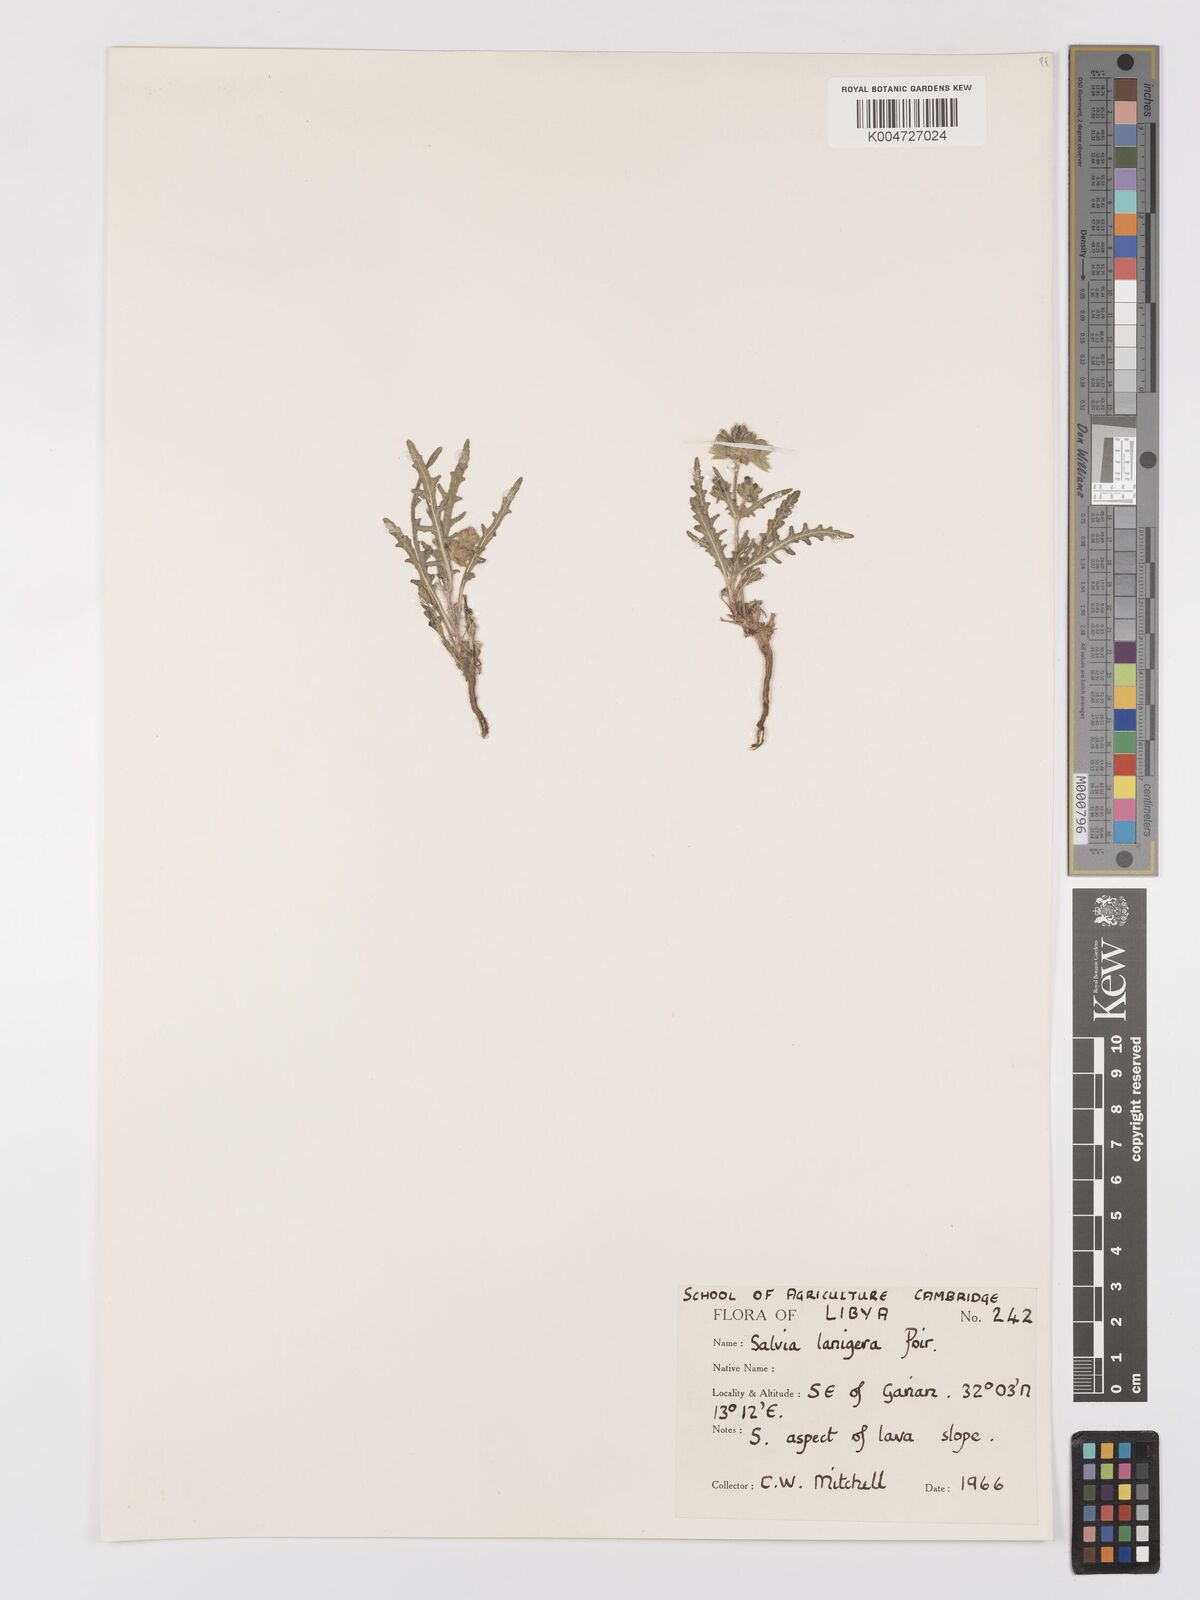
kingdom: Plantae
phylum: Tracheophyta
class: Magnoliopsida
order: Lamiales
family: Lamiaceae
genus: Salvia
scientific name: Salvia lanigera
